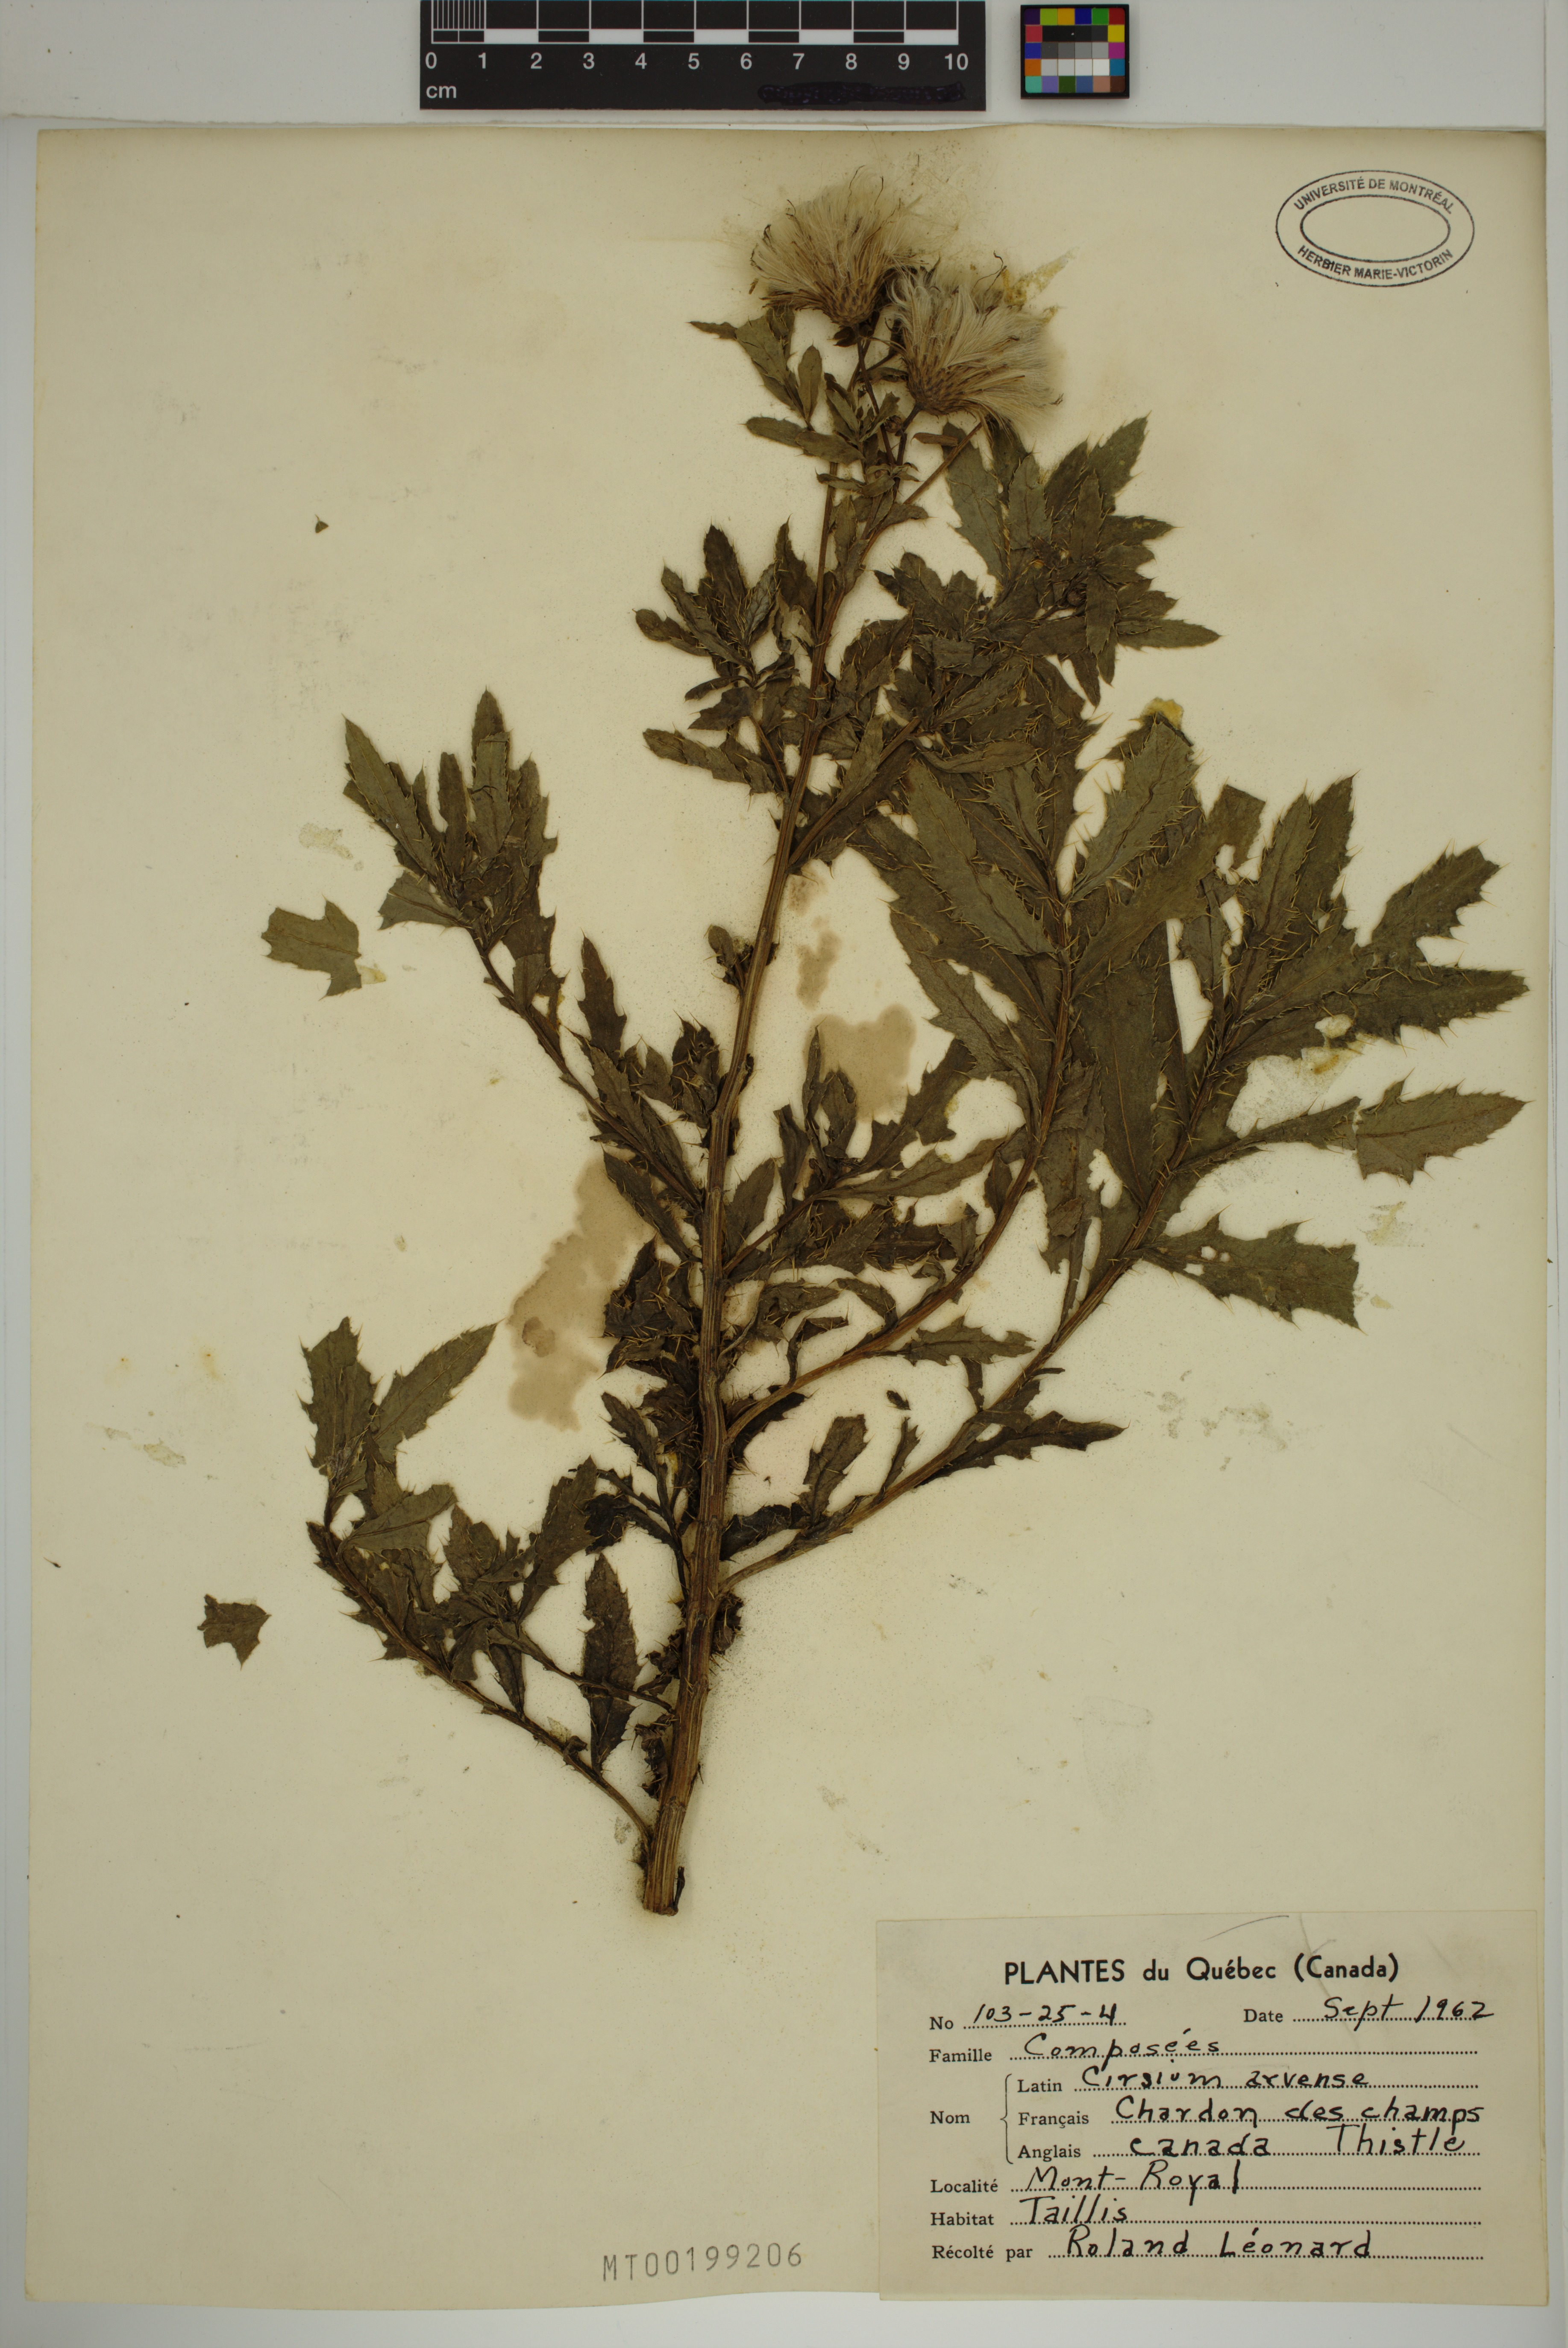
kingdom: Plantae
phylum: Tracheophyta
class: Magnoliopsida
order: Asterales
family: Asteraceae
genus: Cirsium
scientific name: Cirsium arvense
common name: Creeping thistle
